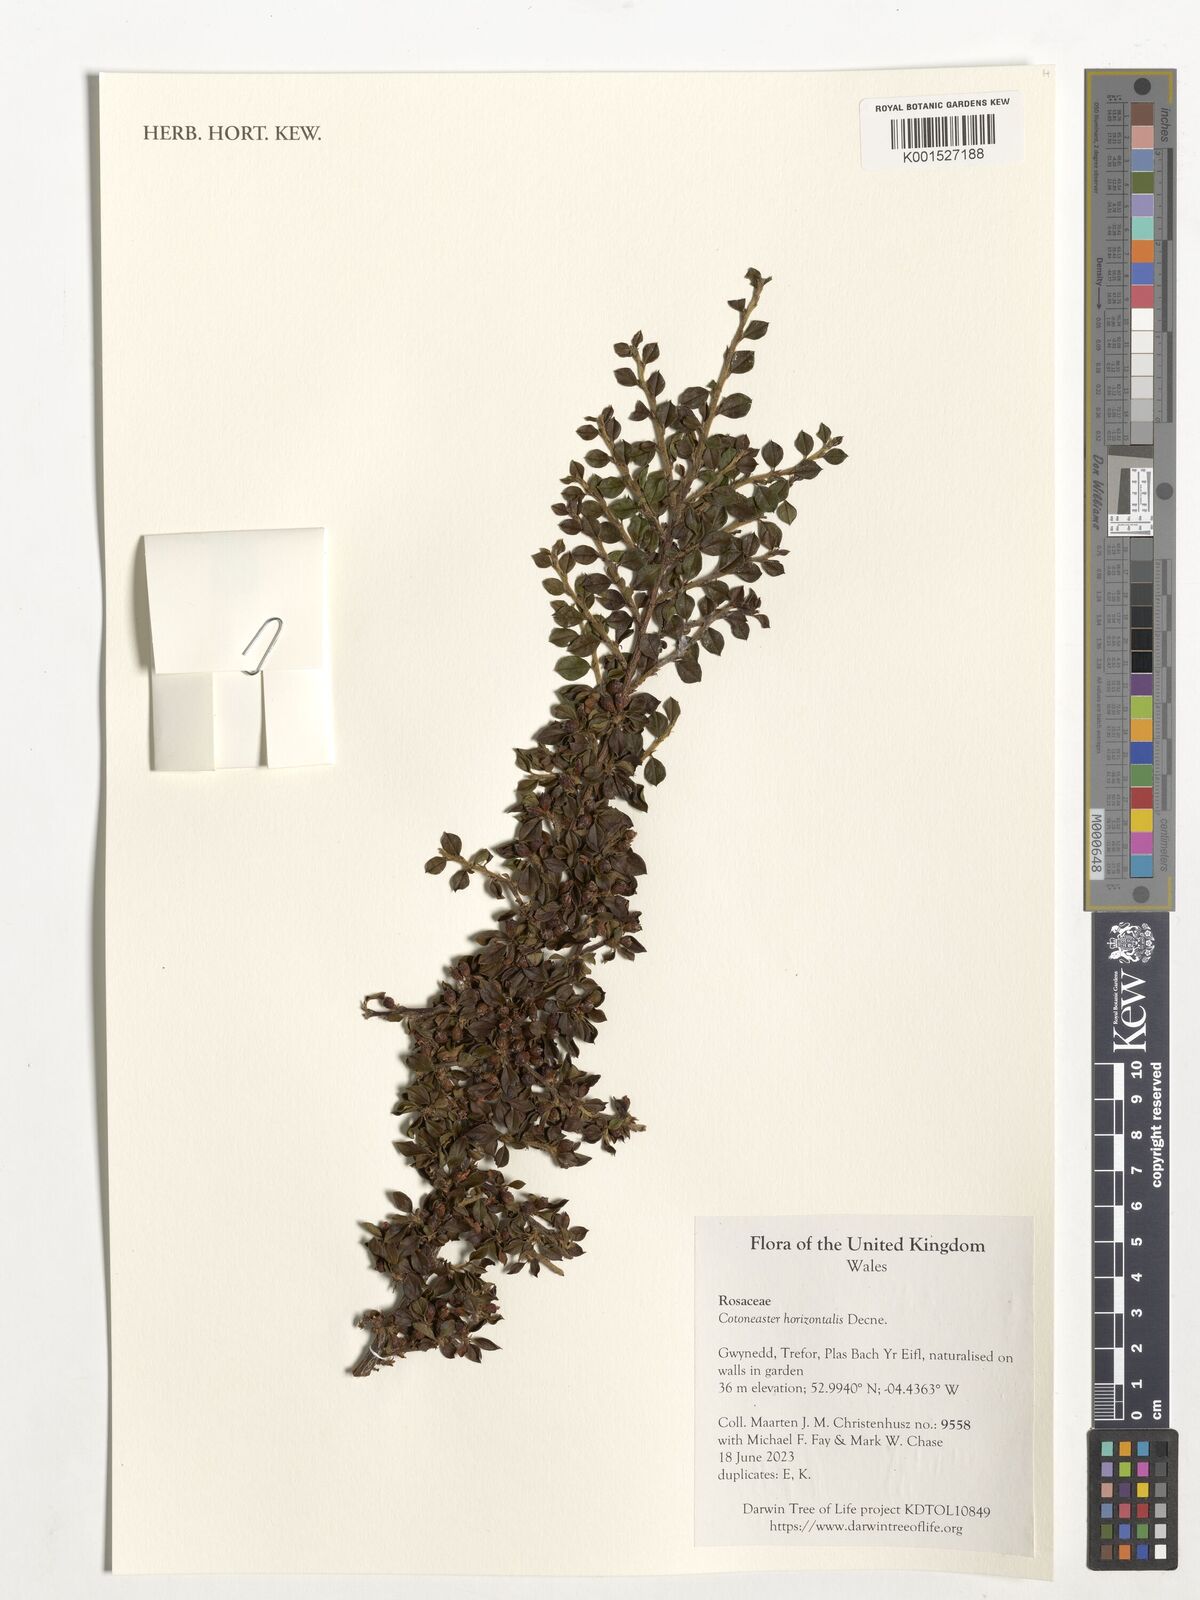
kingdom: Plantae
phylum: Tracheophyta
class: Magnoliopsida
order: Rosales
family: Rosaceae
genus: Cotoneaster
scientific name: Cotoneaster horizontalis
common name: Wall cotoneaster
